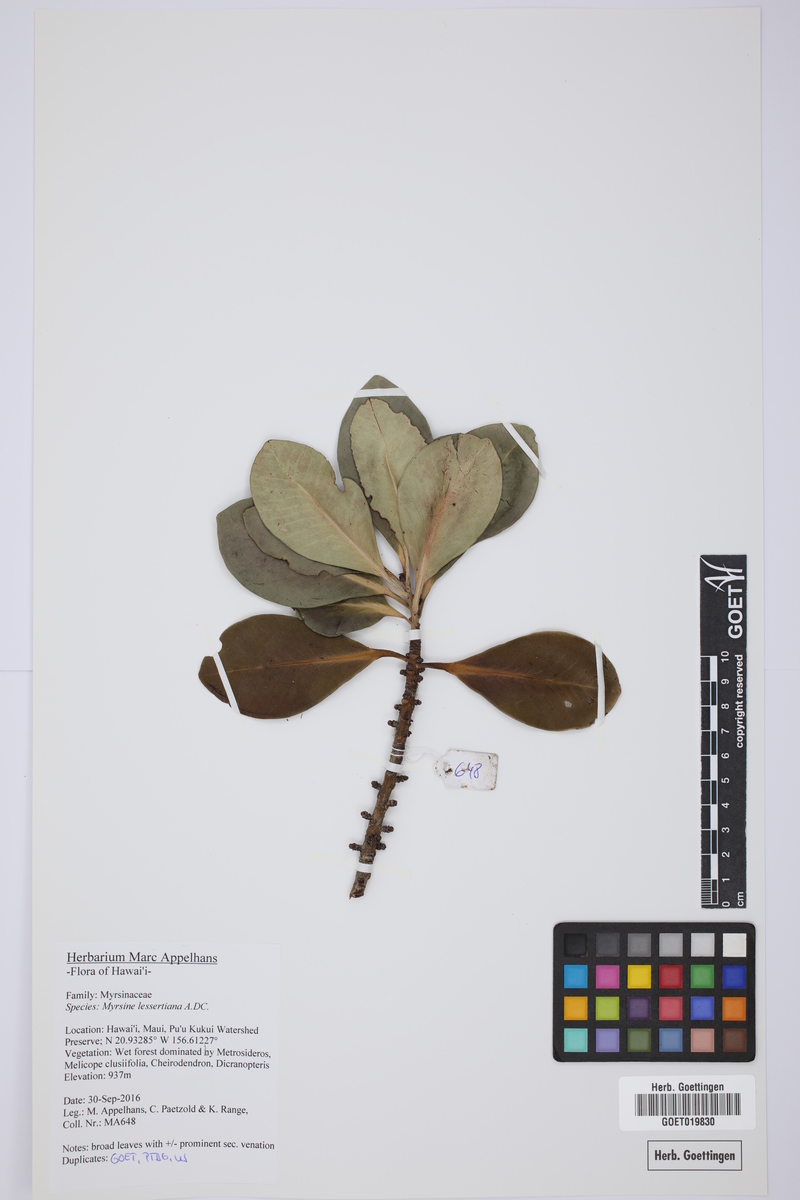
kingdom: Plantae
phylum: Tracheophyta
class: Magnoliopsida
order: Ericales
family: Primulaceae
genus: Myrsine
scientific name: Myrsine lessertiana
